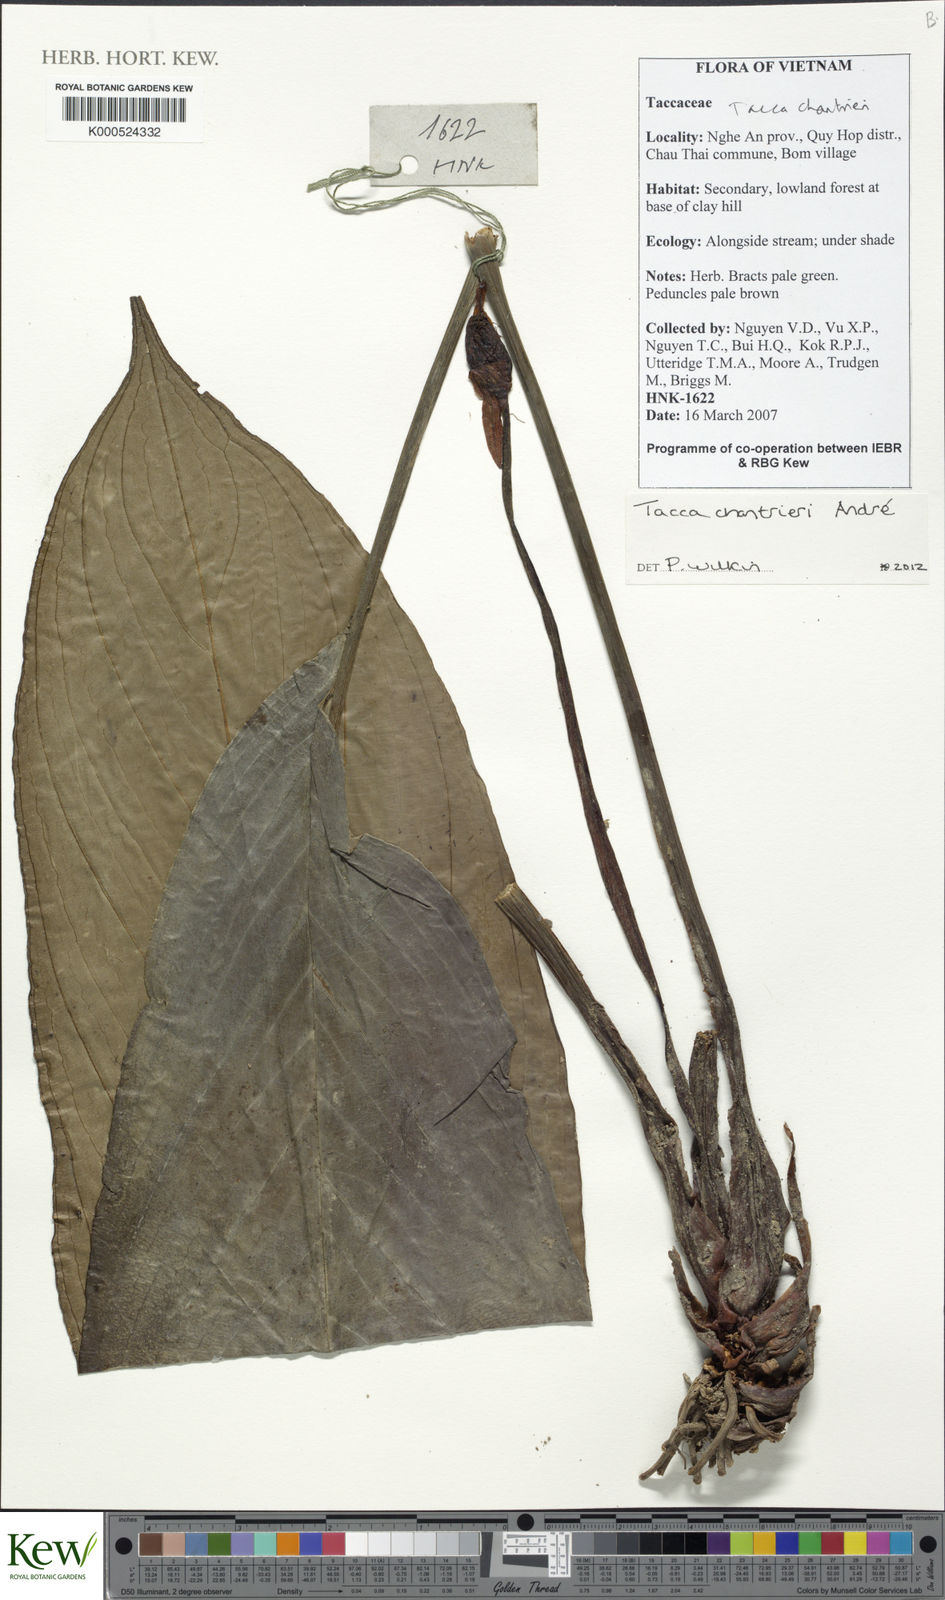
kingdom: Plantae
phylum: Tracheophyta
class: Liliopsida
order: Dioscoreales
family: Dioscoreaceae
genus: Tacca
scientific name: Tacca chantrieri
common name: Cat's-whiskers
